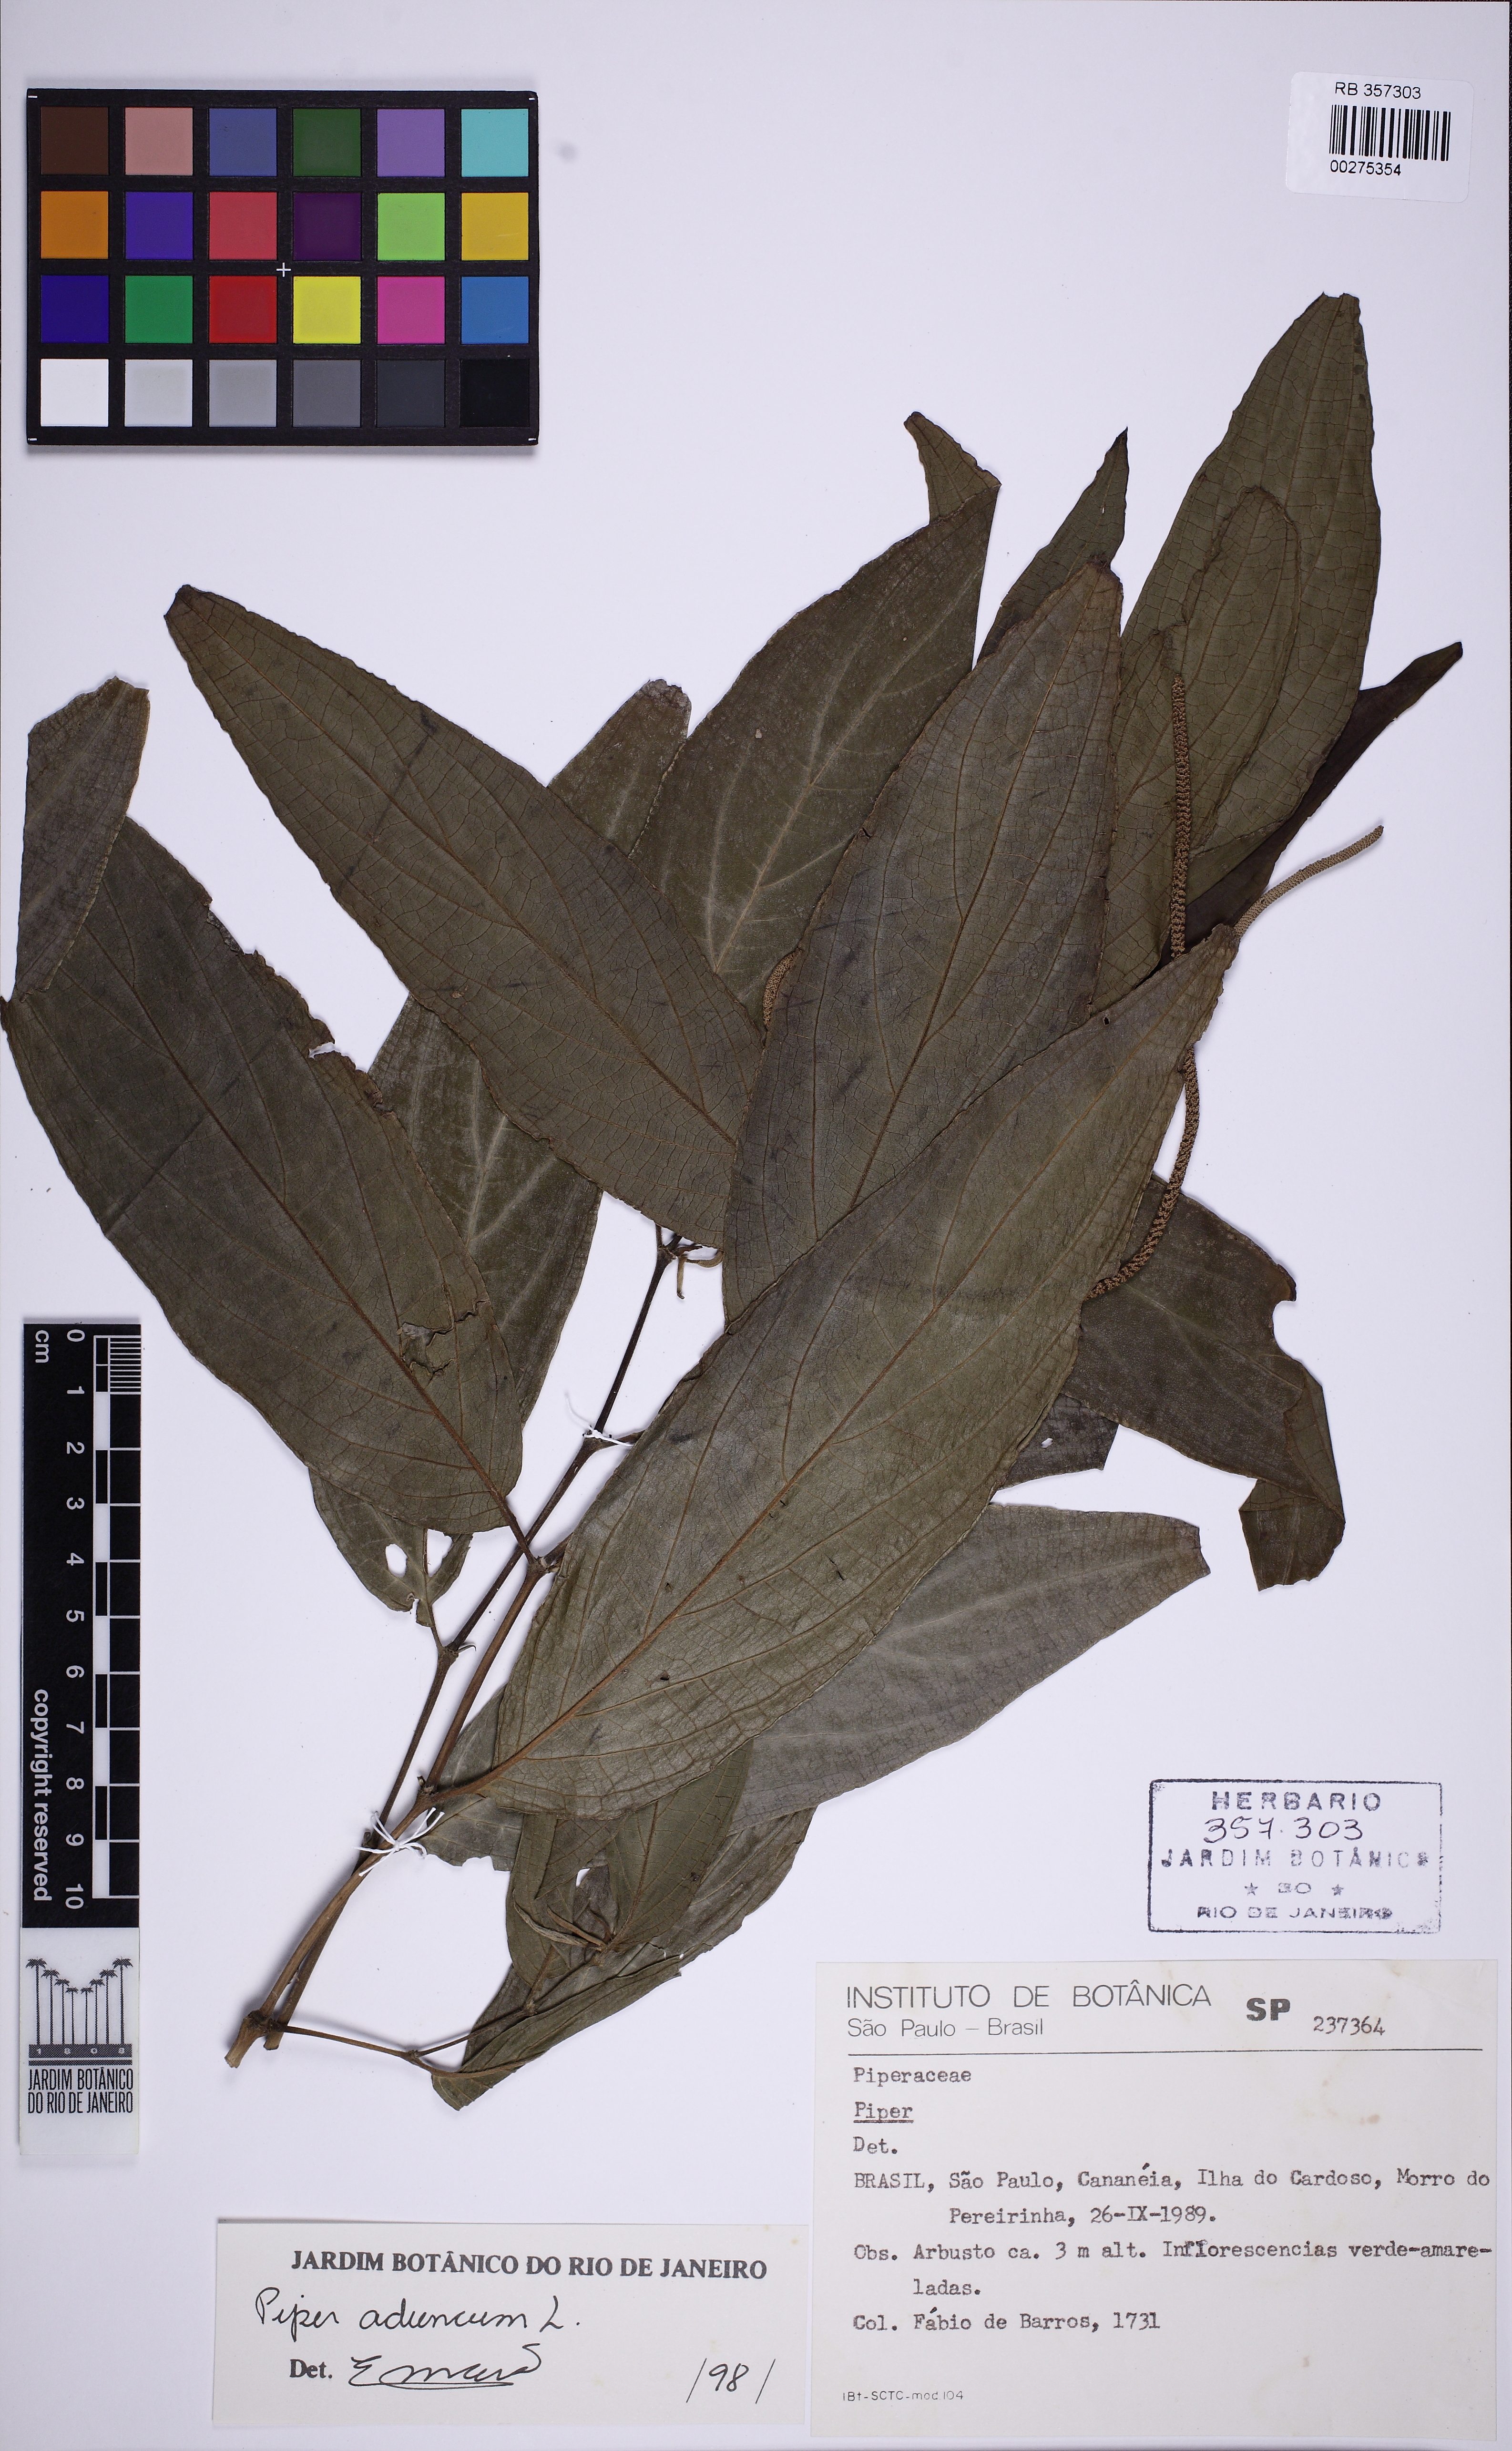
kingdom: Plantae
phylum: Tracheophyta
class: Magnoliopsida
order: Piperales
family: Piperaceae
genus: Piper
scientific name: Piper aduncum
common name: Spiked pepper
